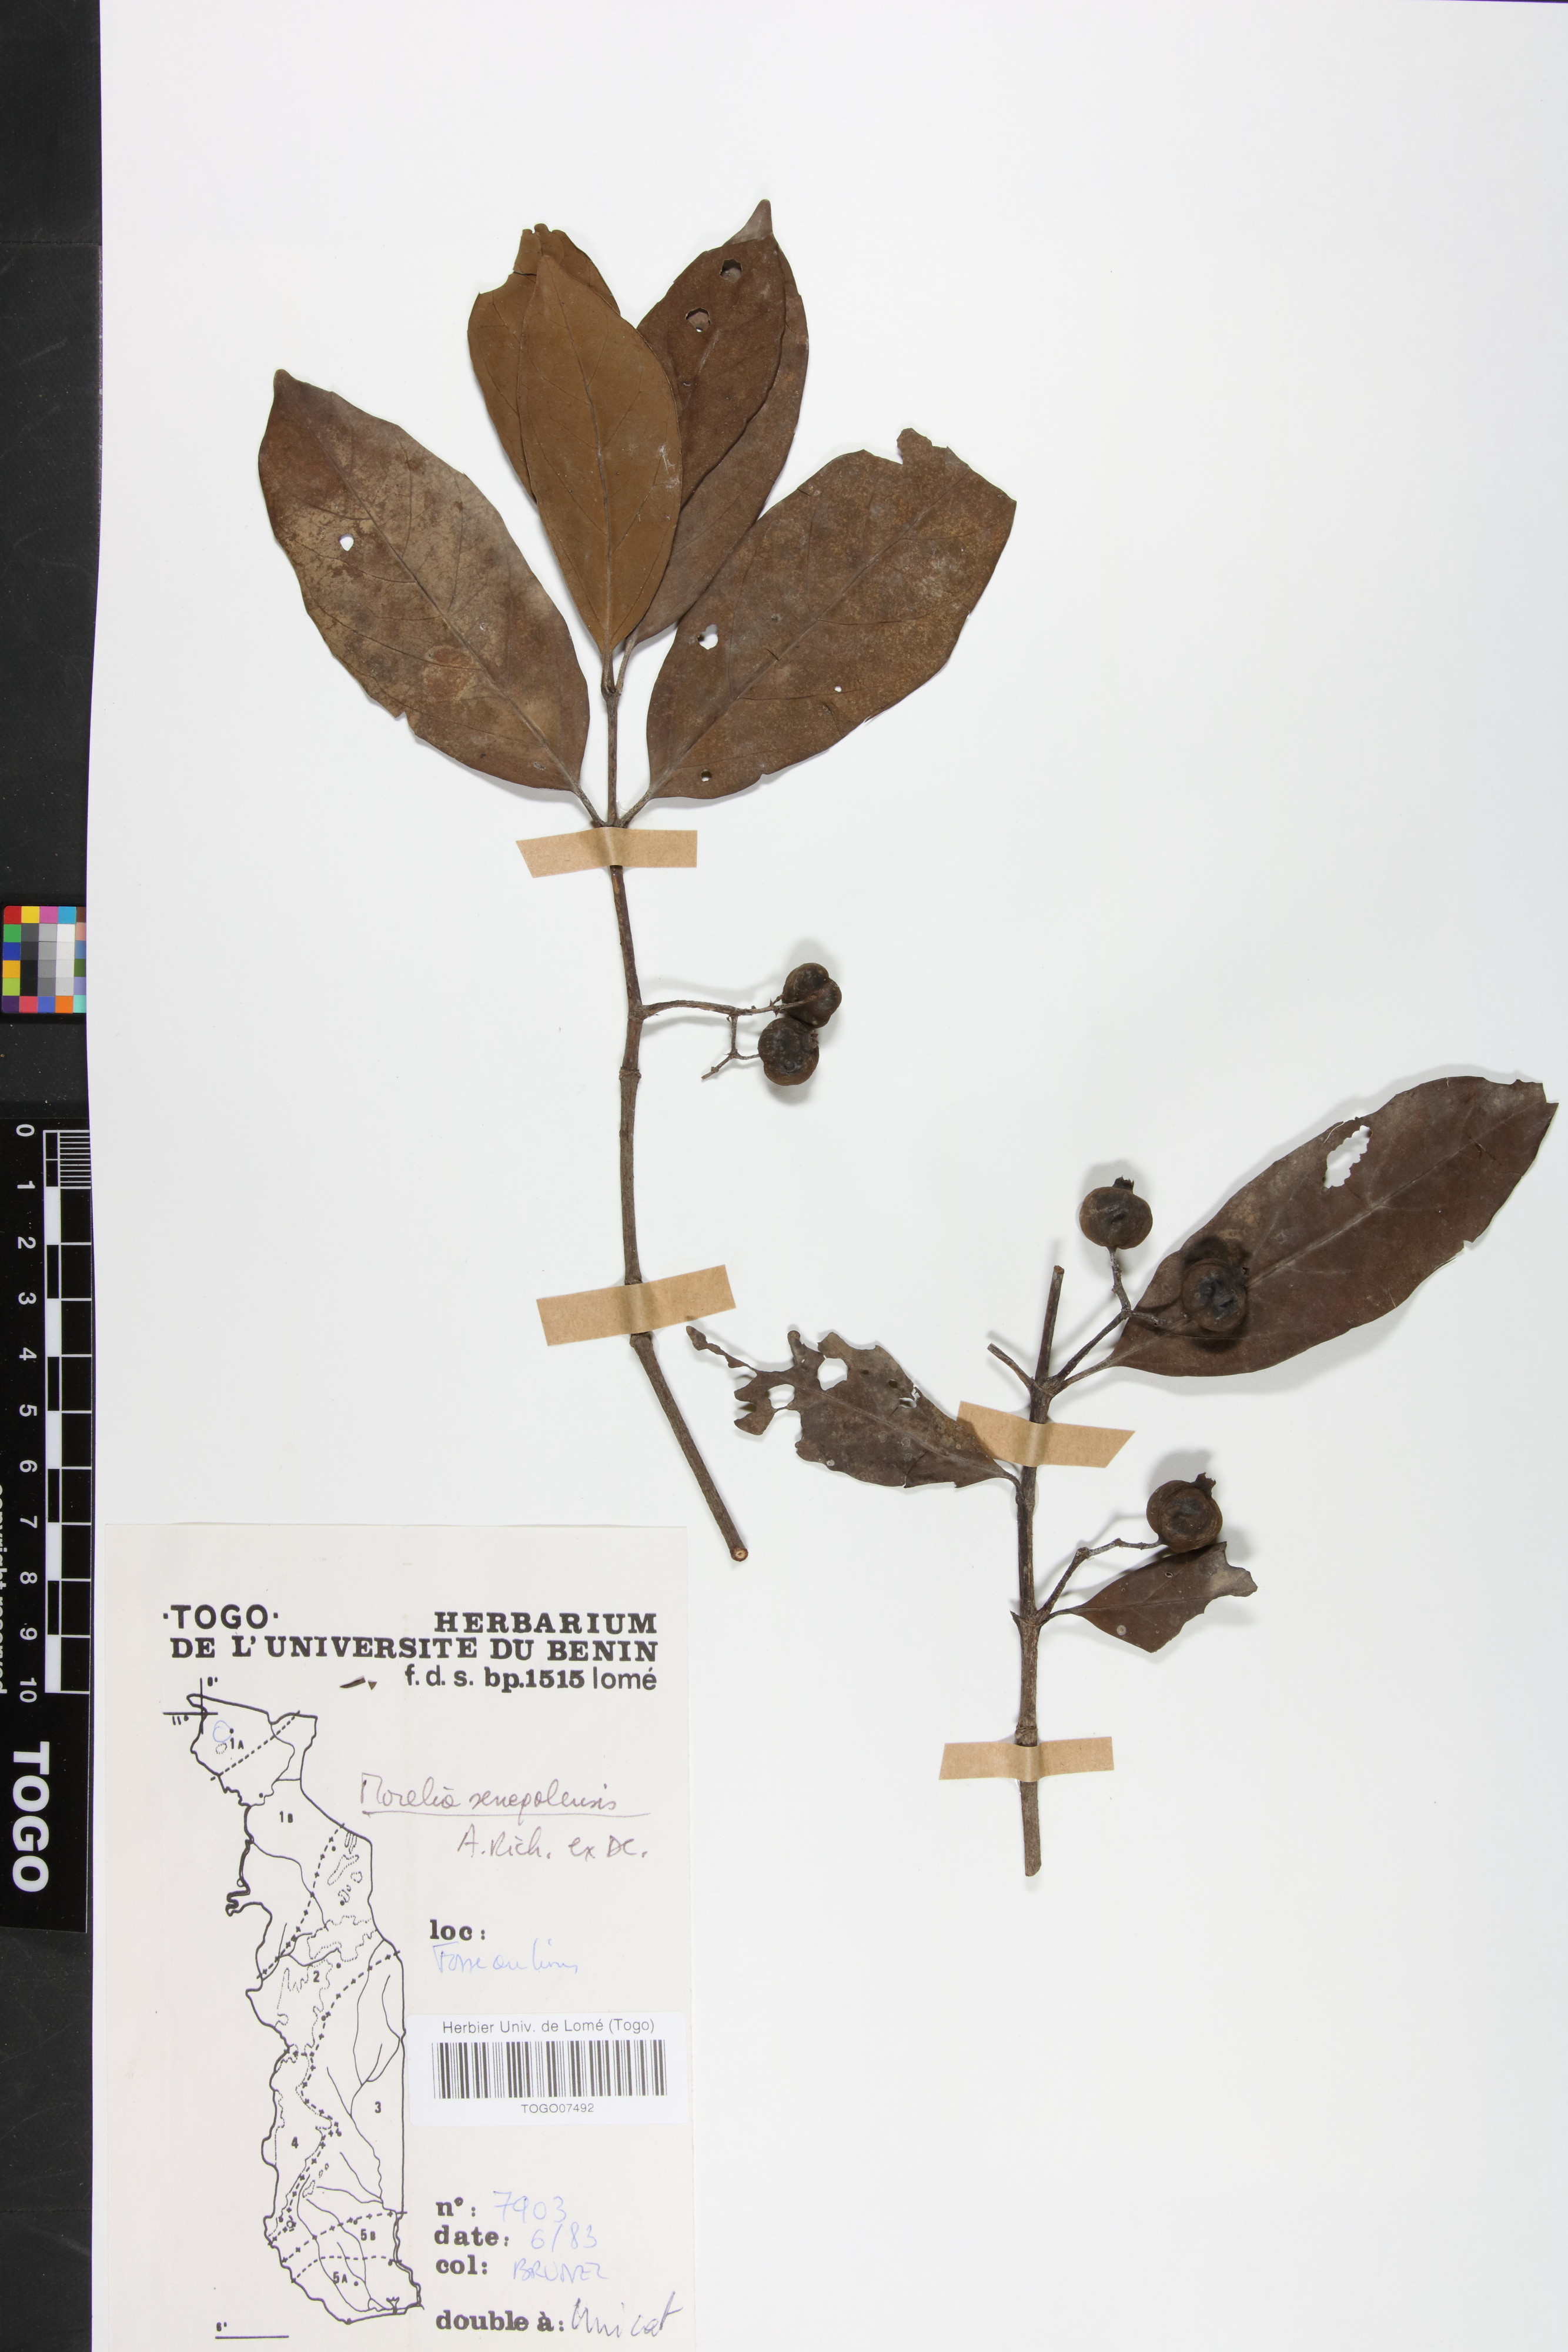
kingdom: Plantae
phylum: Tracheophyta
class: Magnoliopsida
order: Gentianales
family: Rubiaceae
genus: Morelia
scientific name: Morelia senegalensis
